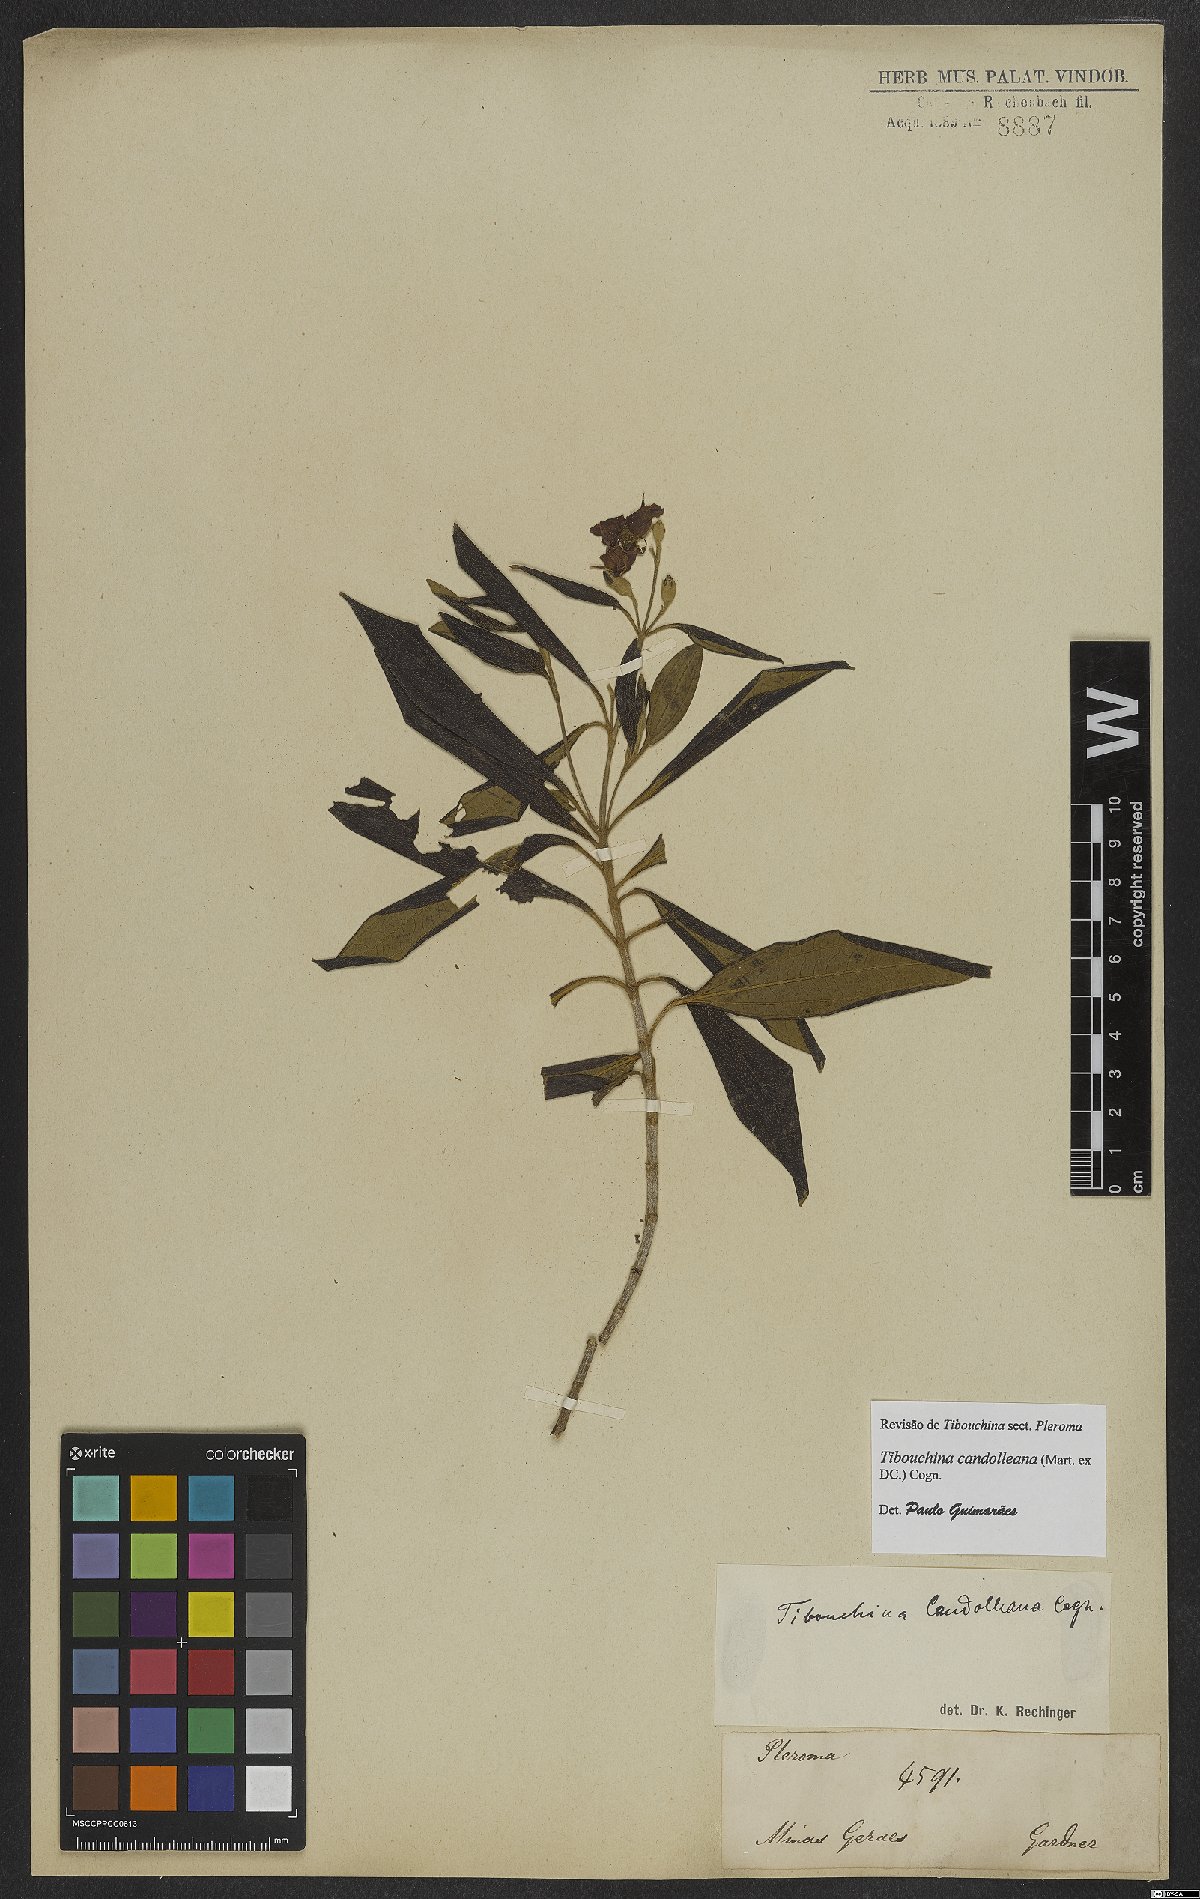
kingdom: Plantae
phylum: Tracheophyta
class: Magnoliopsida
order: Myrtales
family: Melastomataceae
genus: Pleroma
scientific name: Pleroma candolleanum
